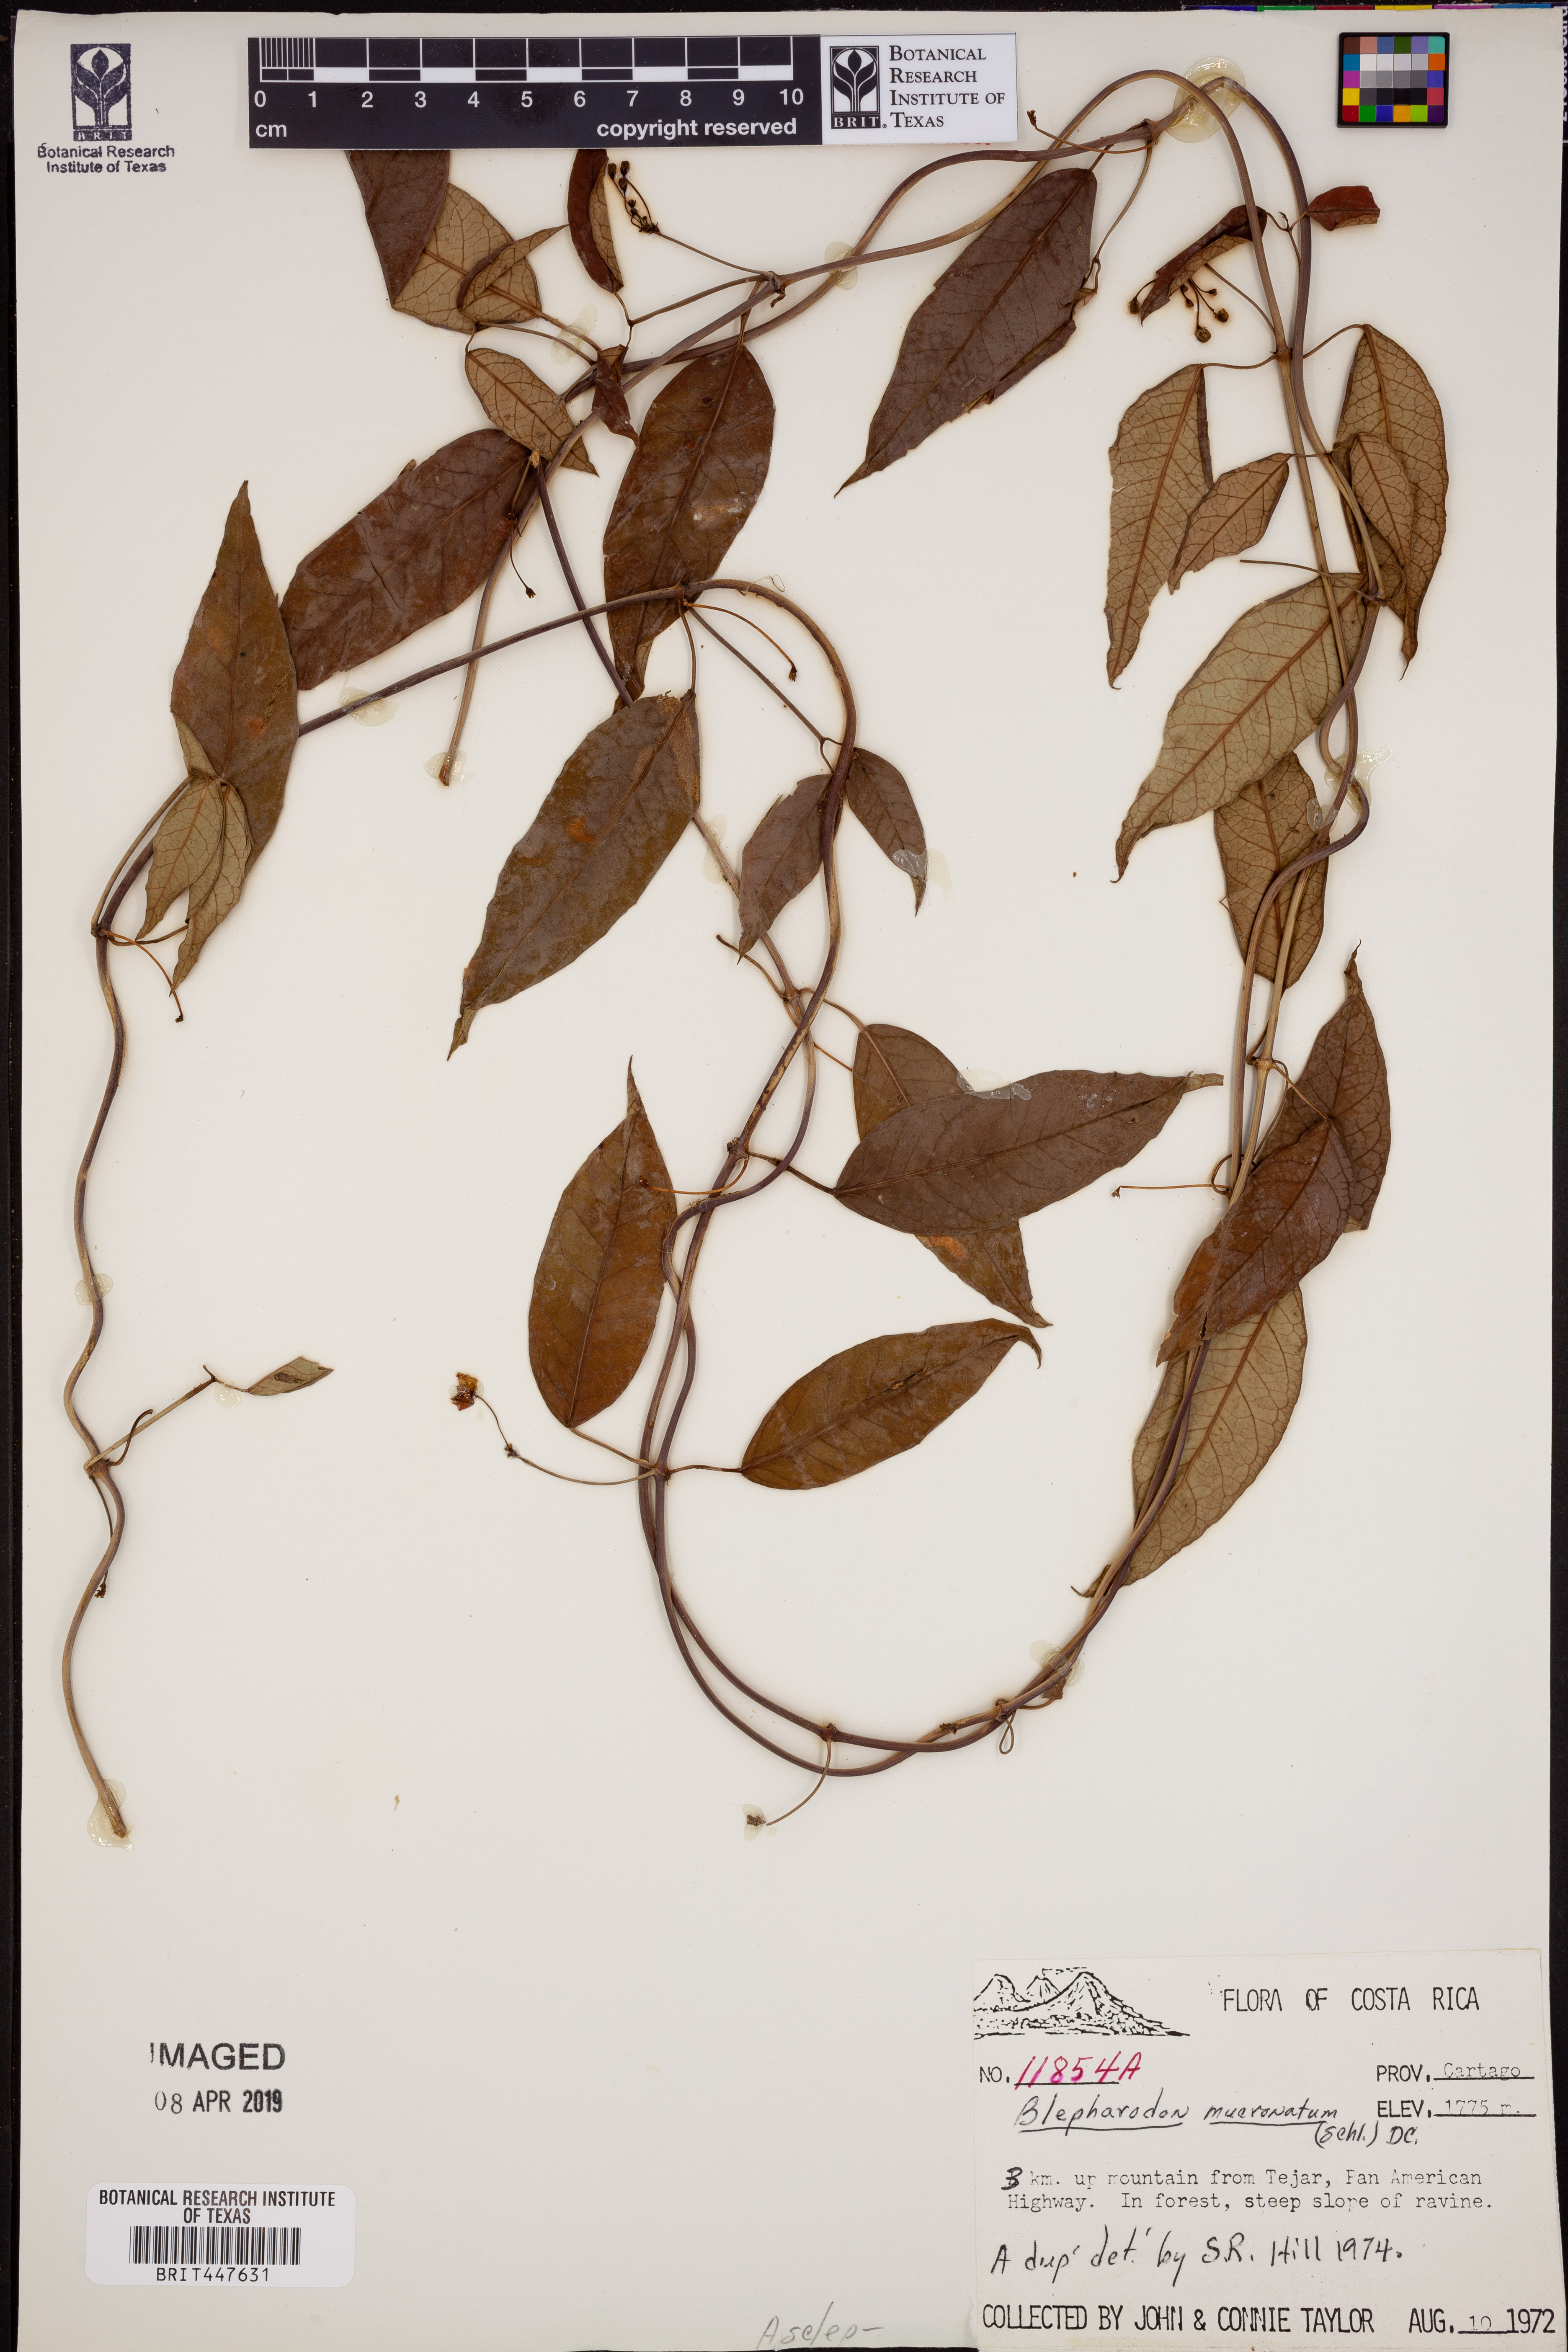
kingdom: Plantae
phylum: Tracheophyta
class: Magnoliopsida
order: Gentianales
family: Apocynaceae
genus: Vailia
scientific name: Vailia anomala
